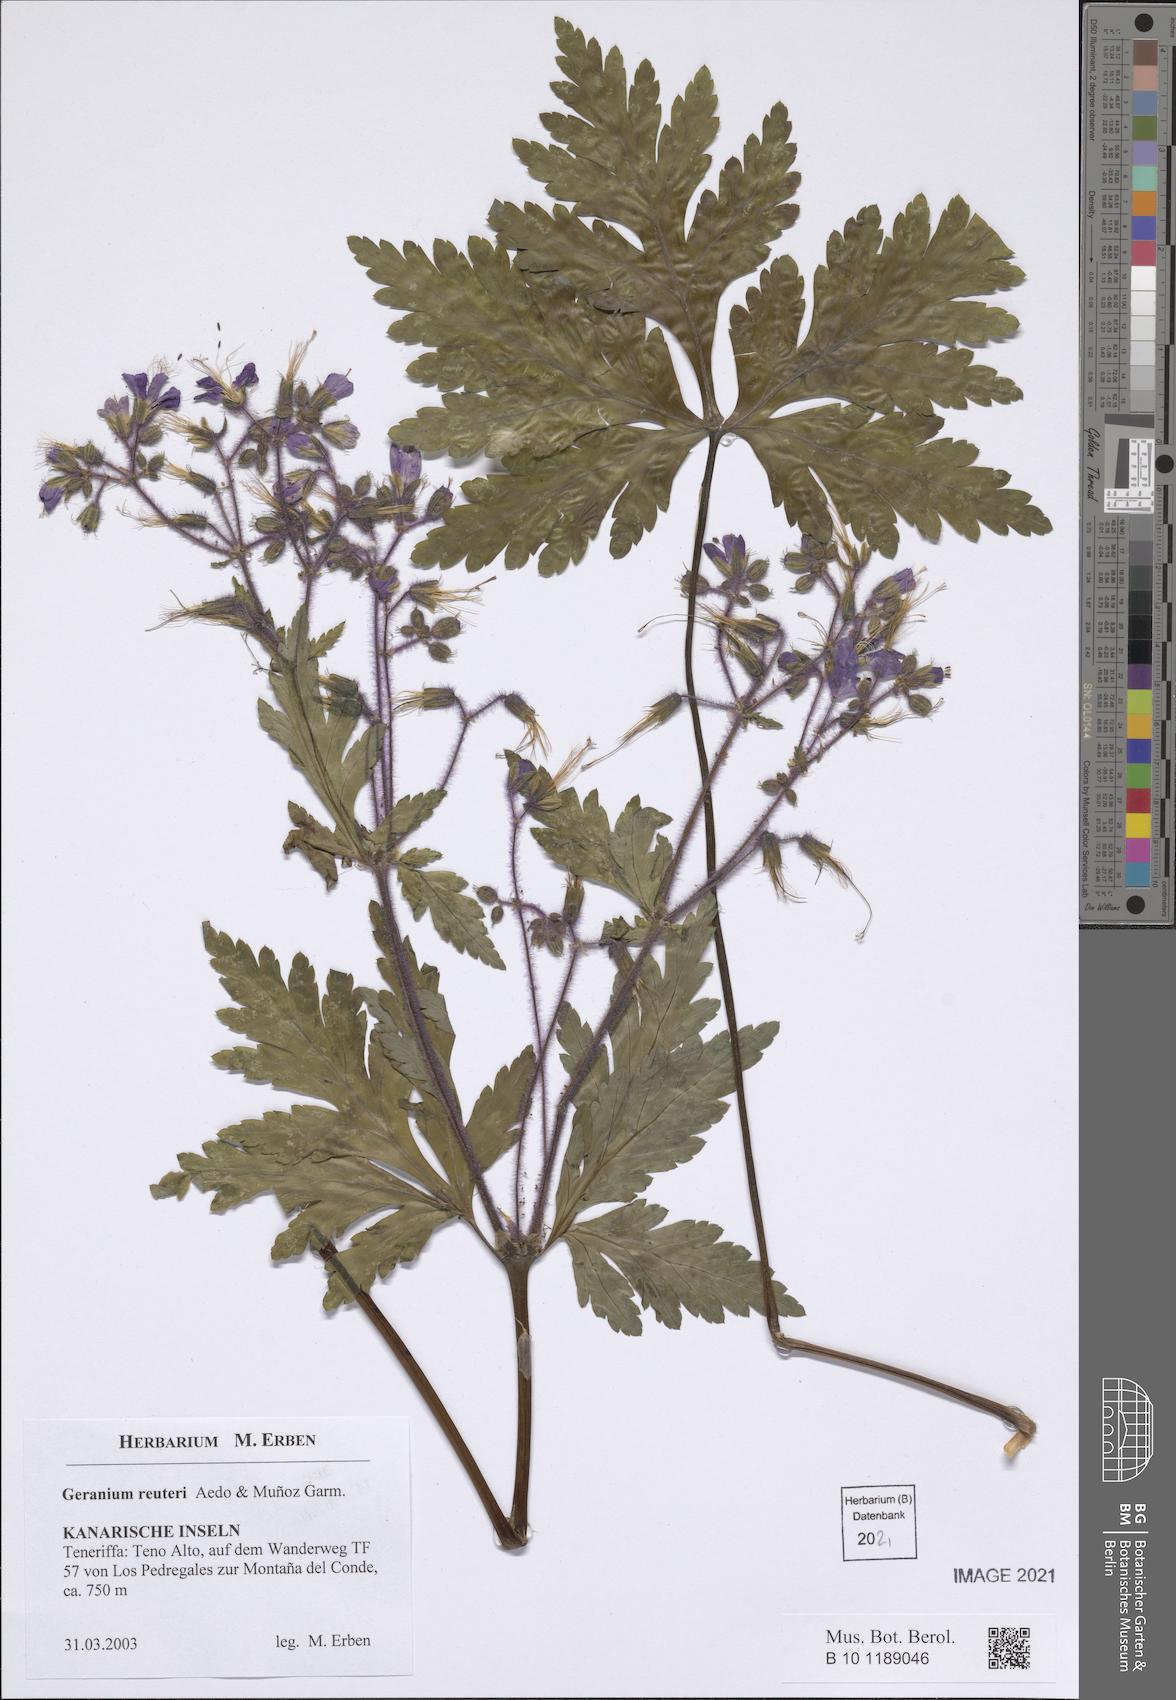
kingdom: Plantae
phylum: Tracheophyta
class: Magnoliopsida
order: Geraniales
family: Geraniaceae
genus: Geranium
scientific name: Geranium reuteri
